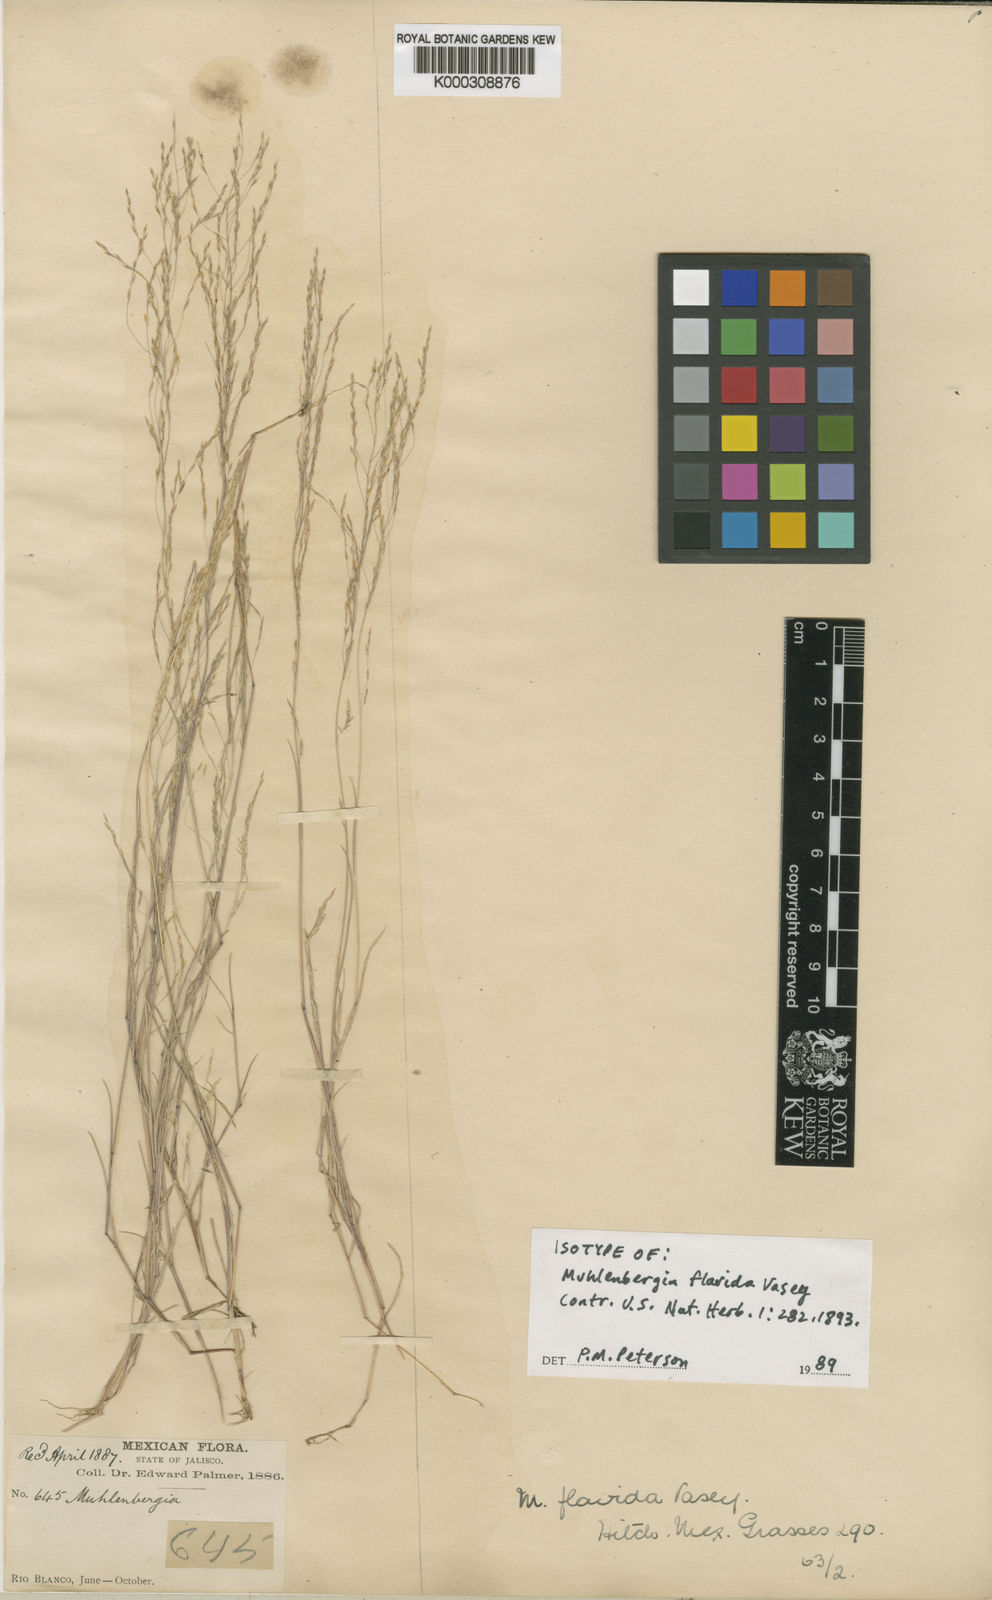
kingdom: Plantae
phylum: Tracheophyta
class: Liliopsida
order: Poales
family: Poaceae
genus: Muhlenbergia
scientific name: Muhlenbergia flavida
